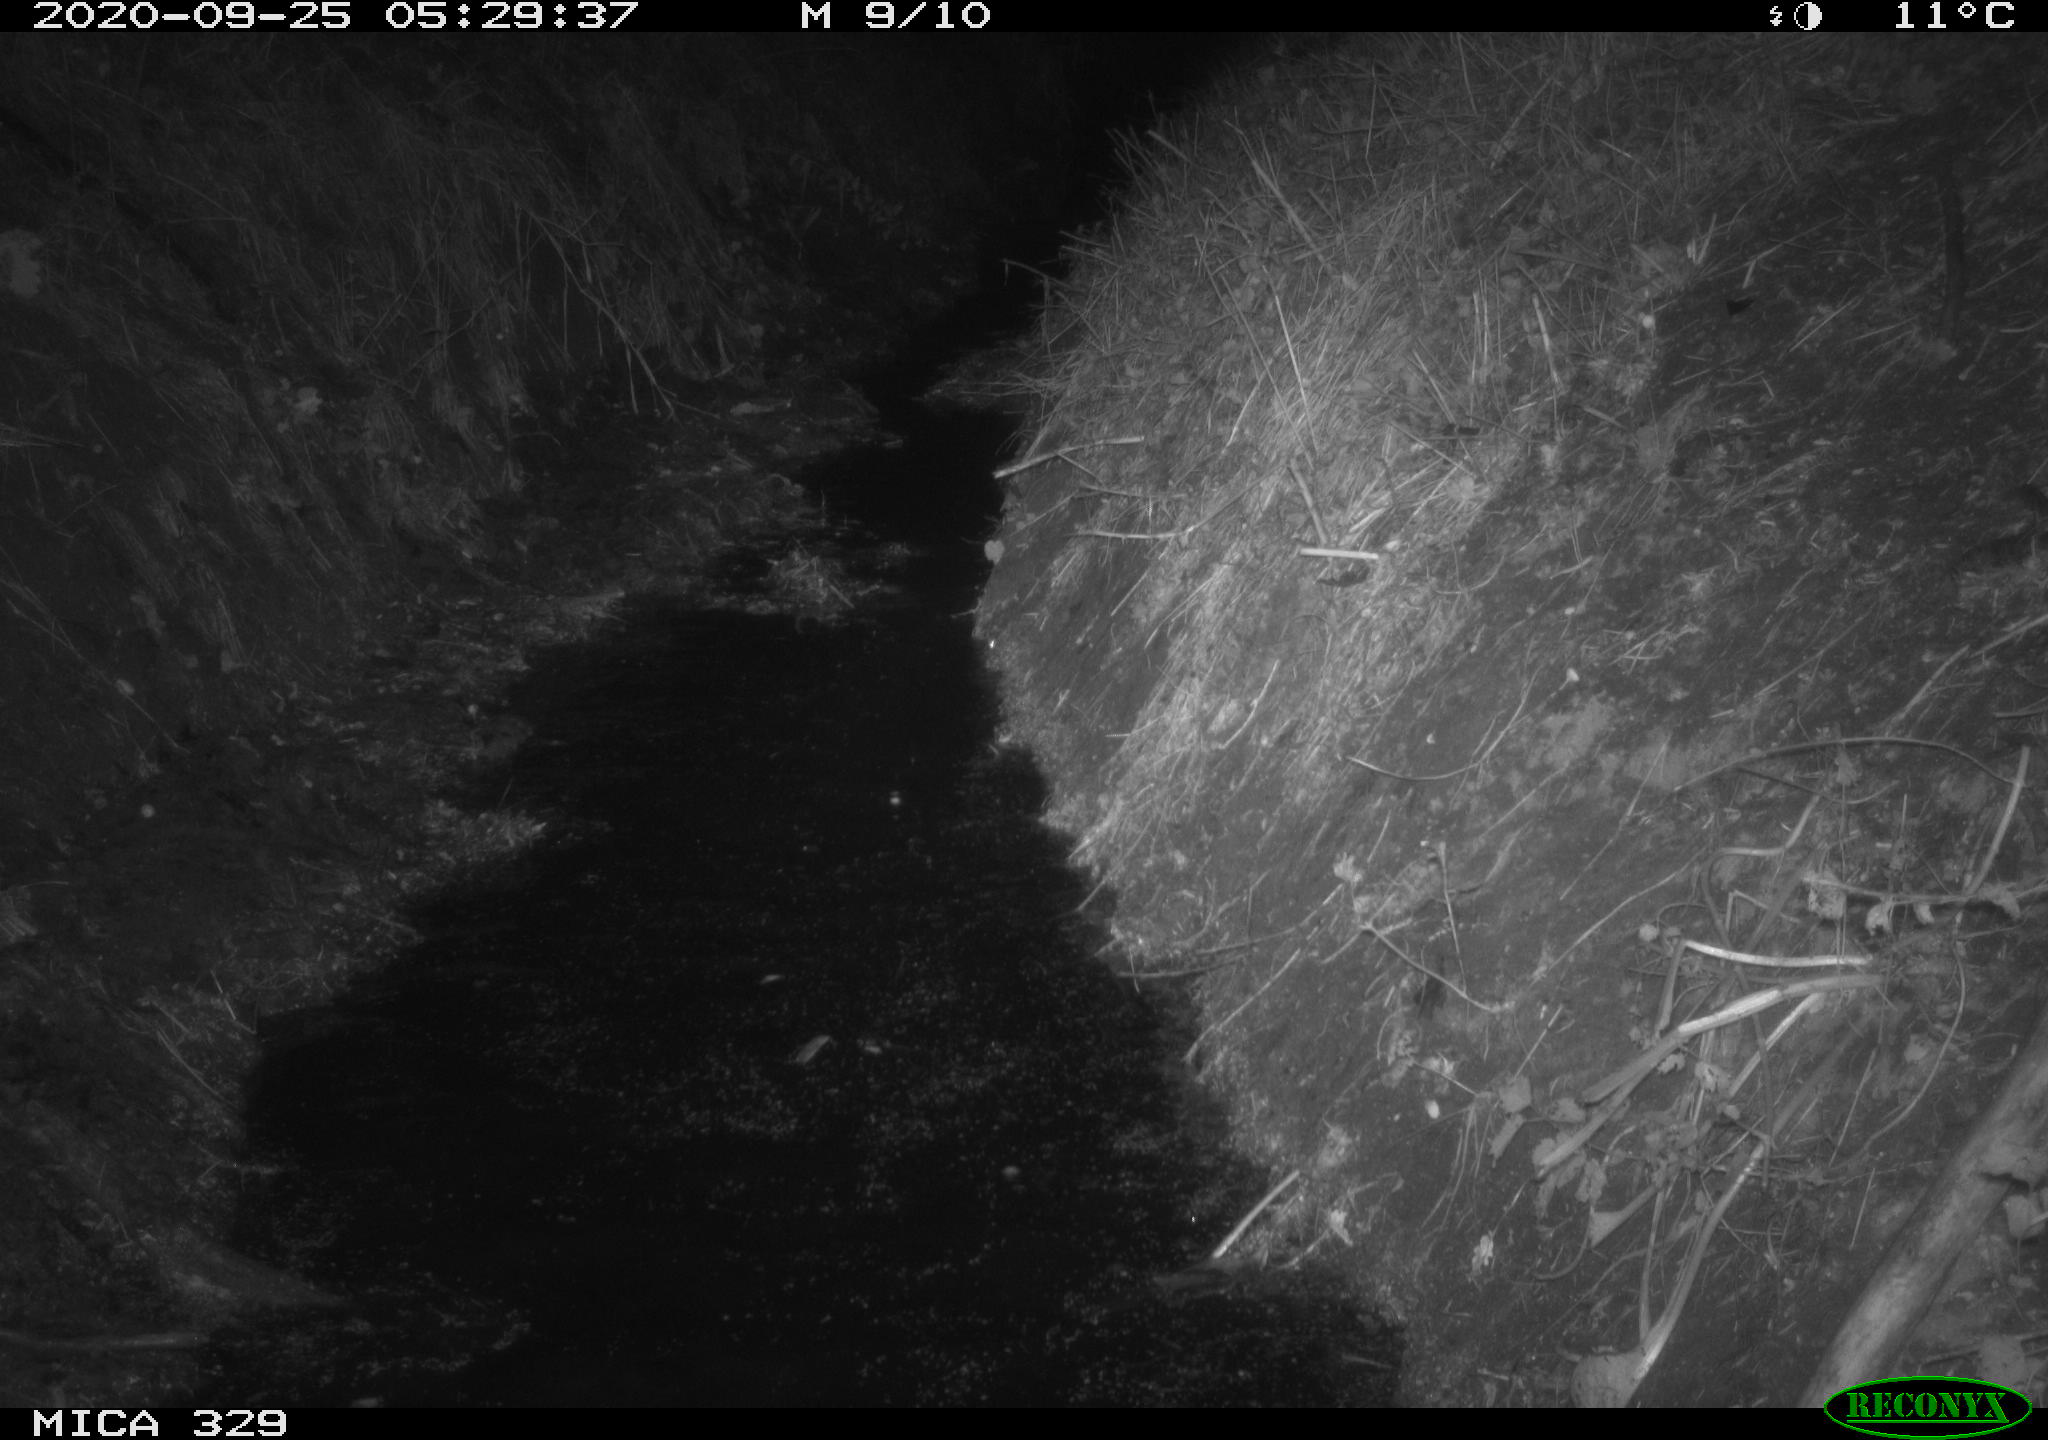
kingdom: Animalia
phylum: Chordata
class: Mammalia
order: Rodentia
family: Cricetidae
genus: Ondatra
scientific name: Ondatra zibethicus
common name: Muskrat
